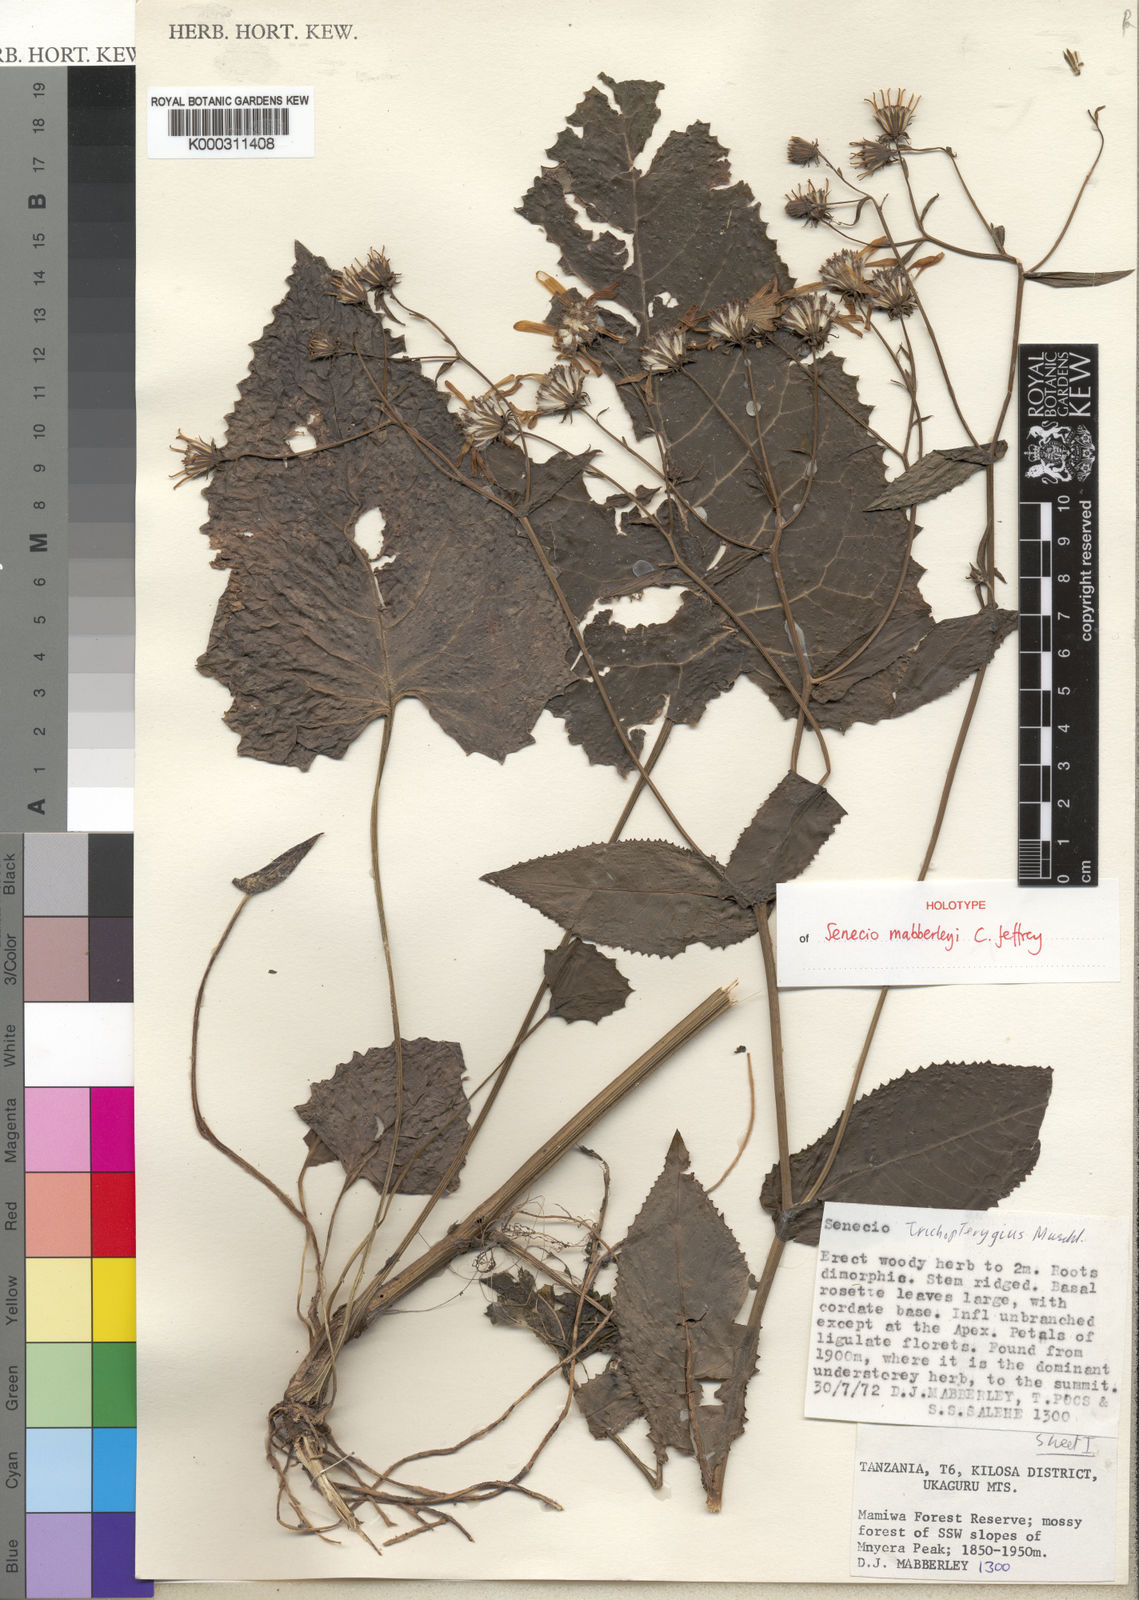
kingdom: Plantae
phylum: Tracheophyta
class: Magnoliopsida
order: Asterales
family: Asteraceae
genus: Senecio
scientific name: Senecio mabberleyi
